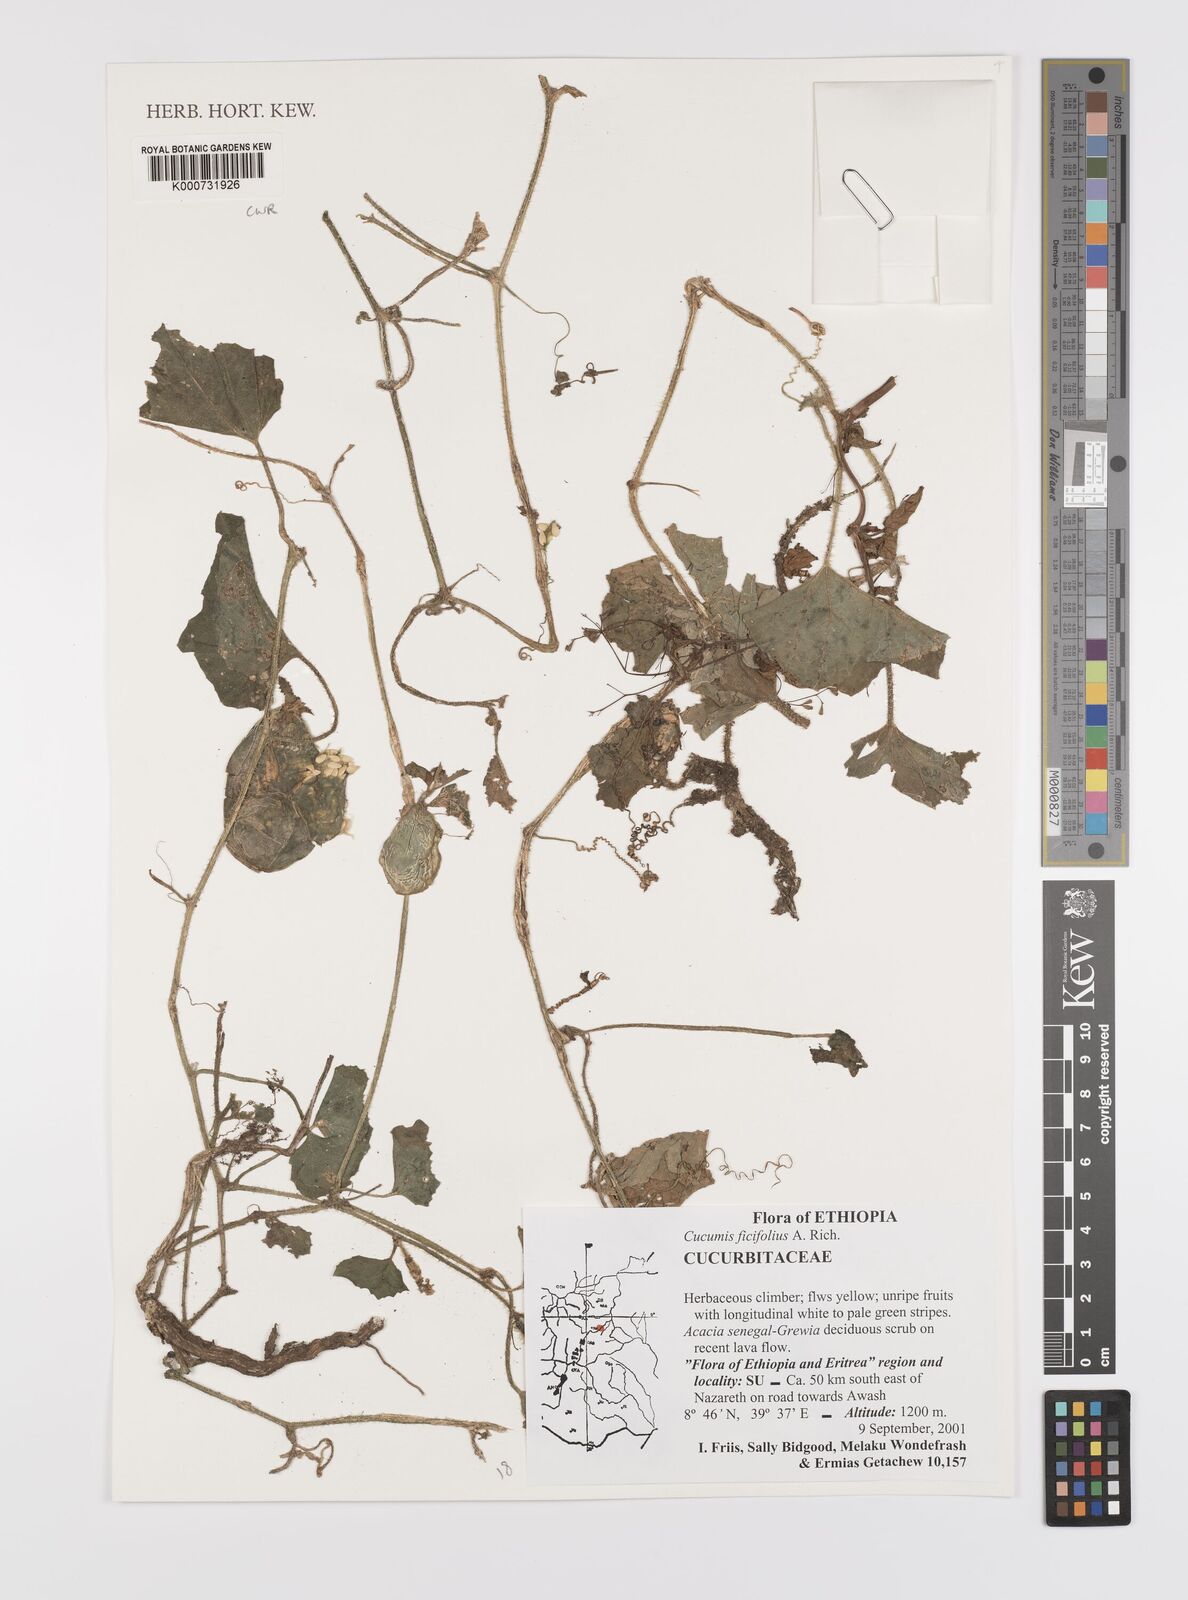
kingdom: Plantae
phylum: Tracheophyta
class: Magnoliopsida
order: Cucurbitales
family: Cucurbitaceae
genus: Cucumis
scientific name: Cucumis ficifolius
